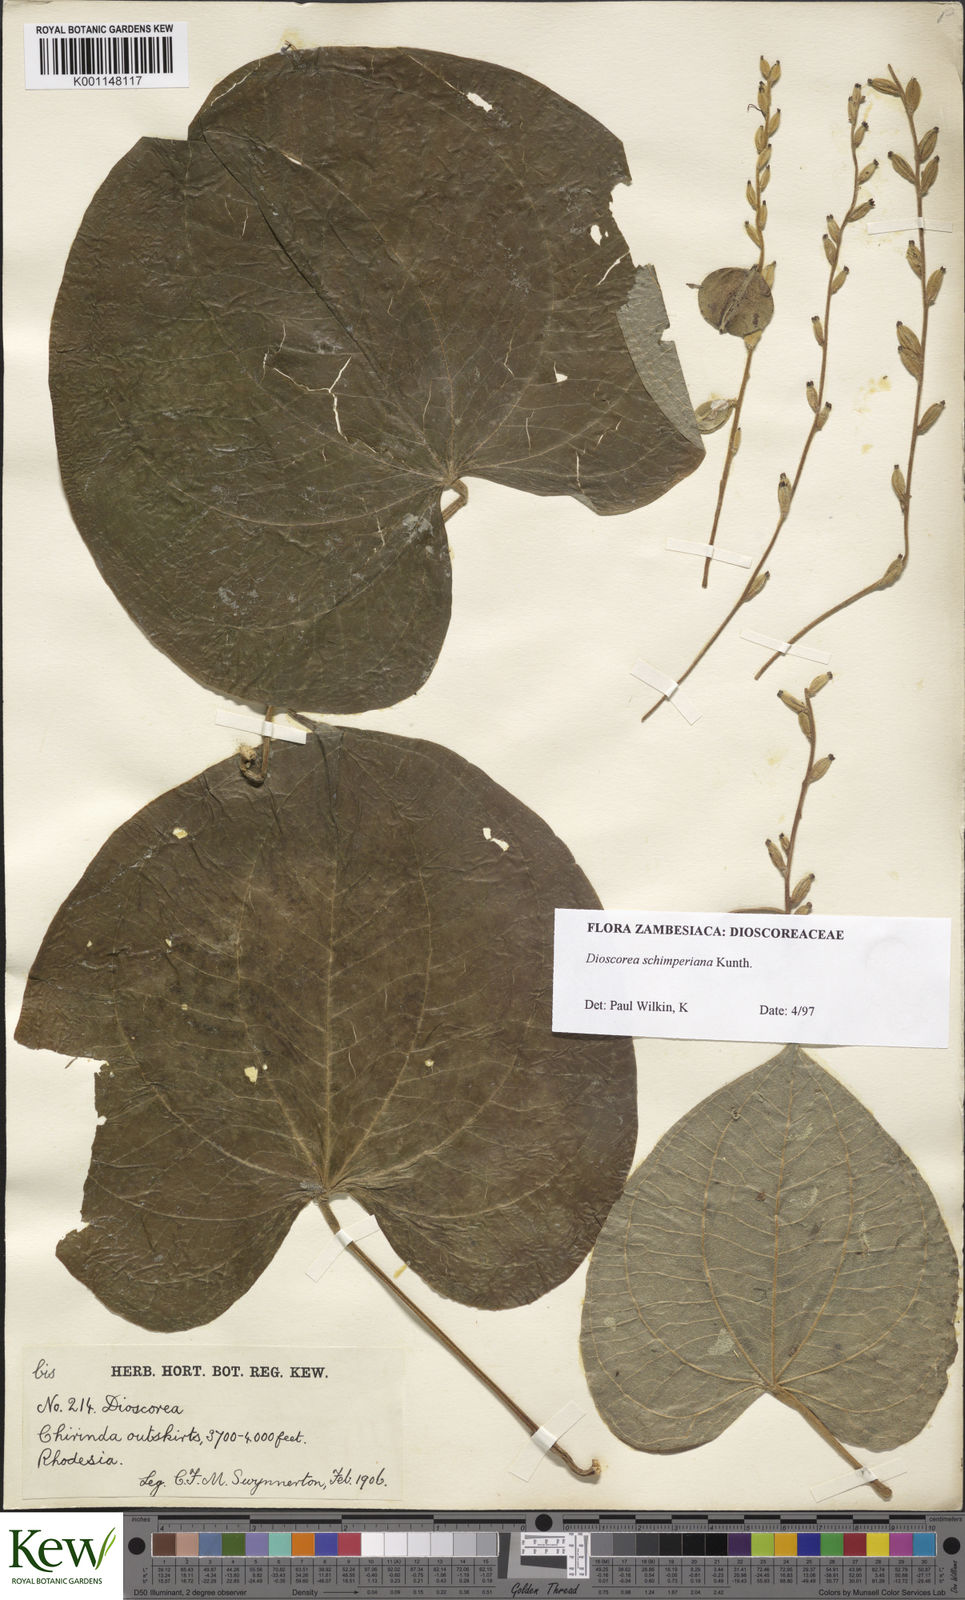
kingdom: Plantae
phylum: Tracheophyta
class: Liliopsida
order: Dioscoreales
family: Dioscoreaceae
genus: Dioscorea
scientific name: Dioscorea schimperiana
